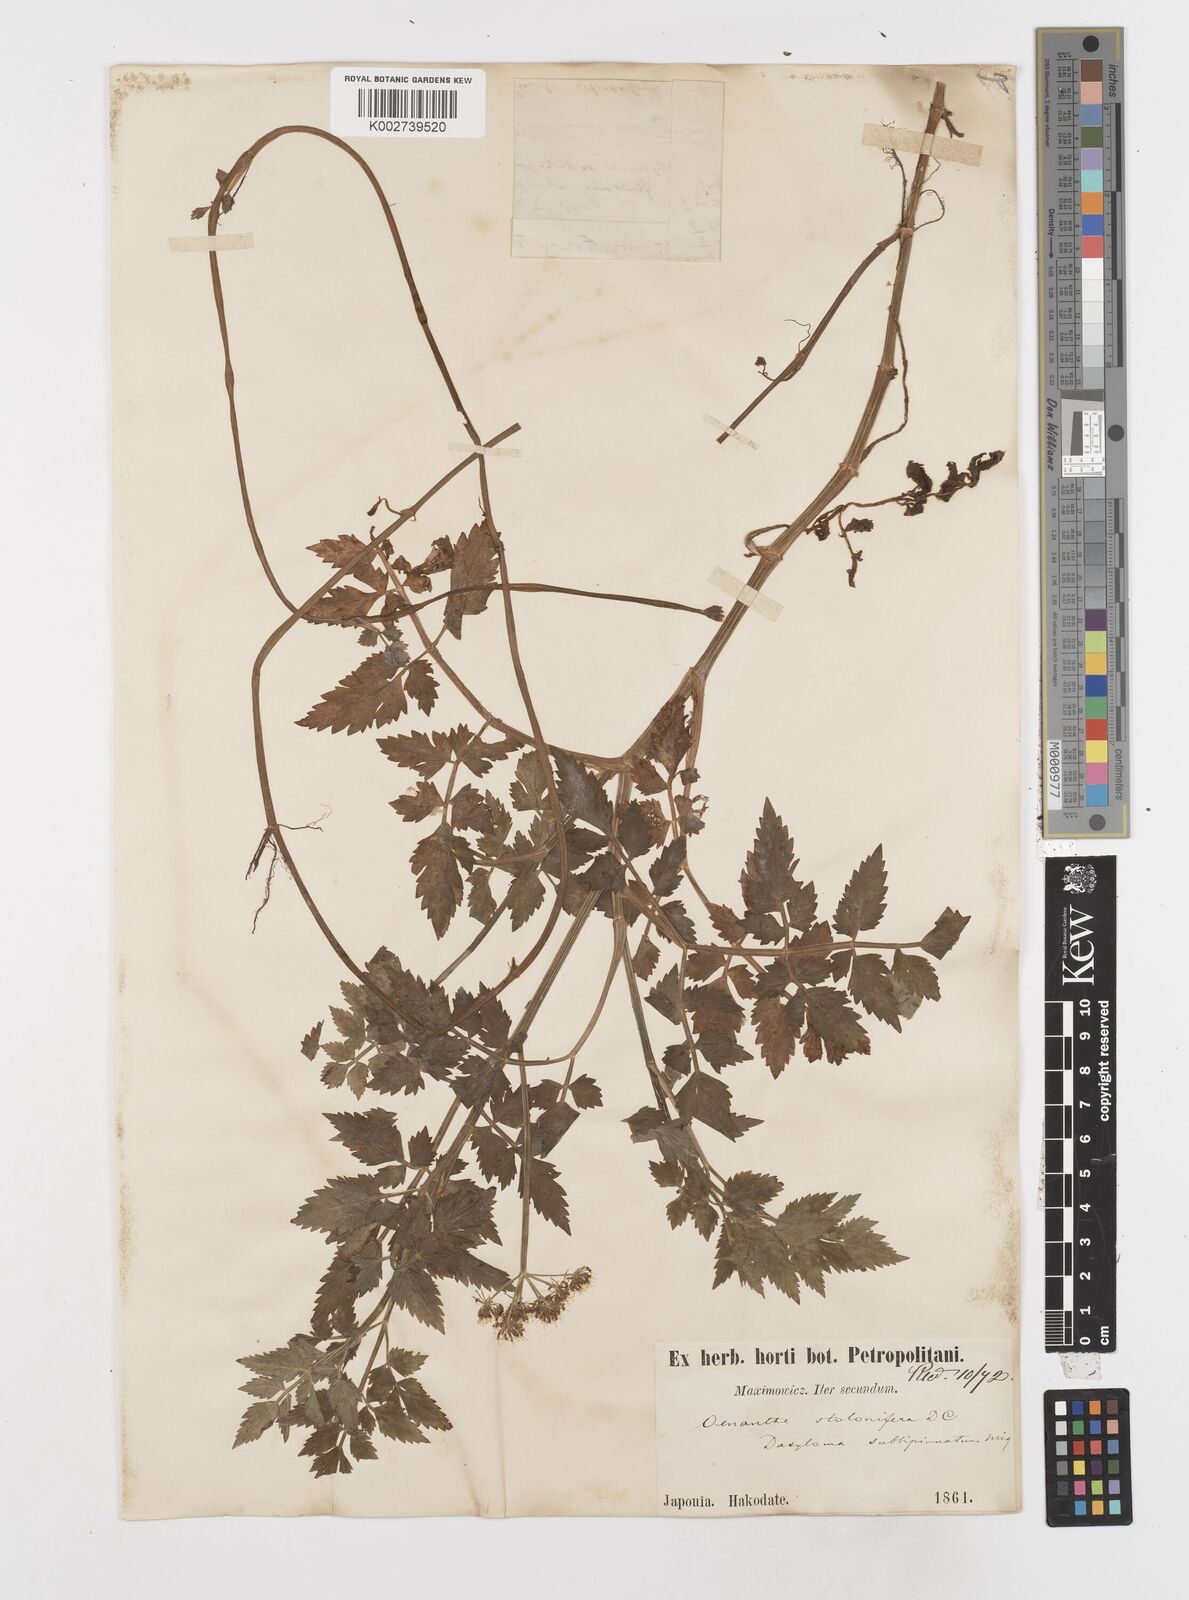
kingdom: Plantae
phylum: Tracheophyta
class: Magnoliopsida
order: Apiales
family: Apiaceae
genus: Oenanthe
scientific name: Oenanthe javanica
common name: Java water-dropwort
